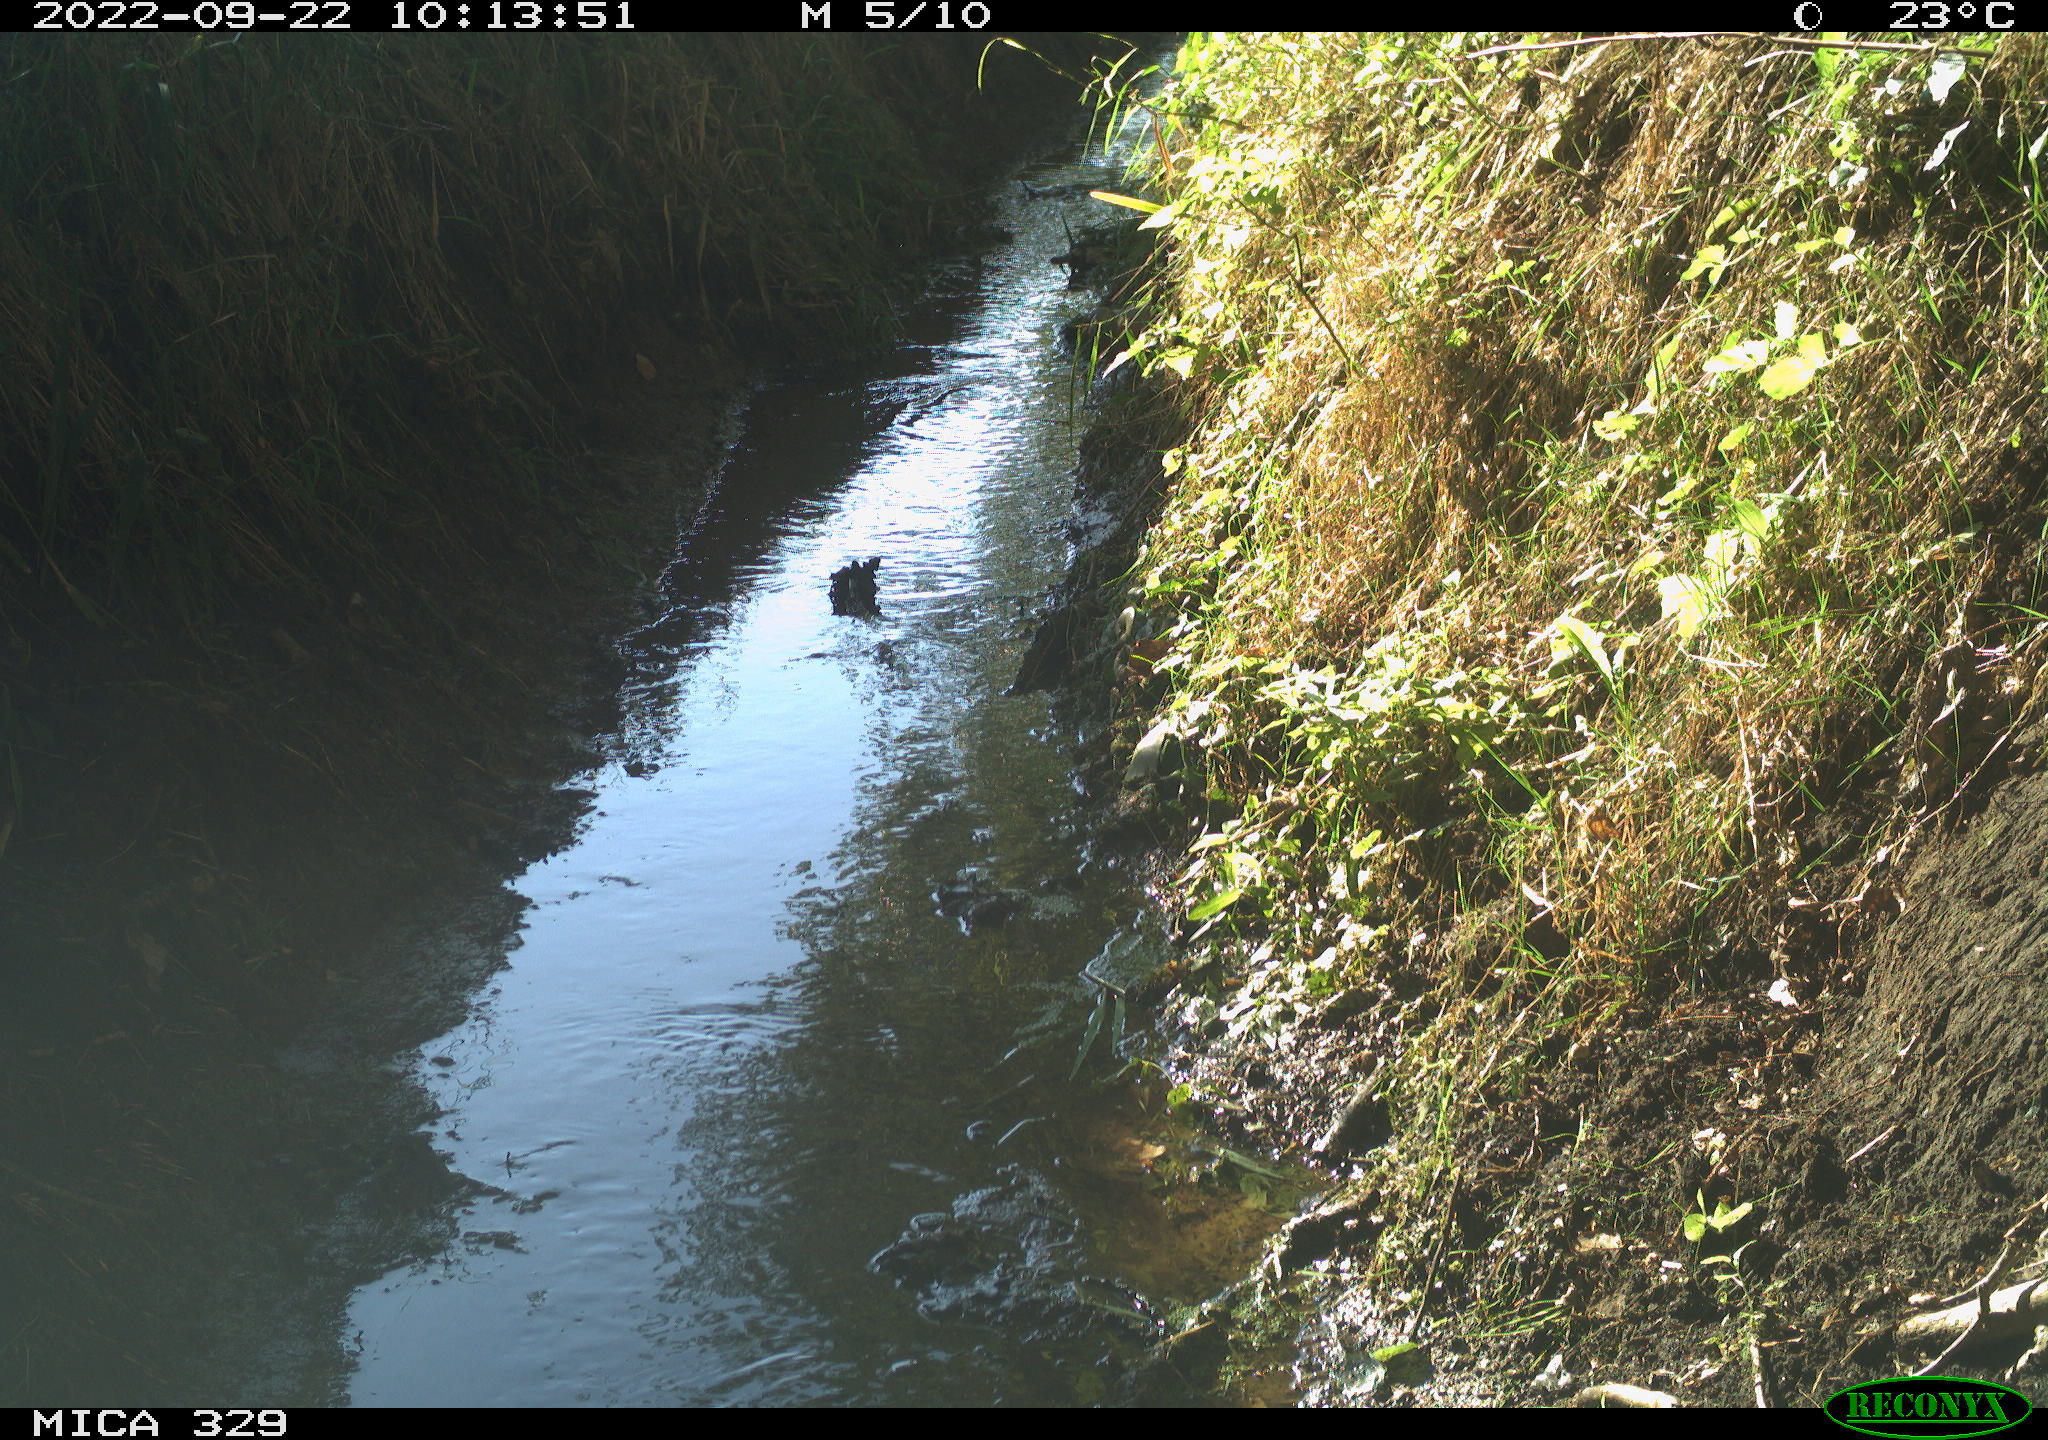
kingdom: Animalia
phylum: Chordata
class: Aves
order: Columbiformes
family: Columbidae
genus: Columba
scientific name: Columba palumbus
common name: Common wood pigeon
